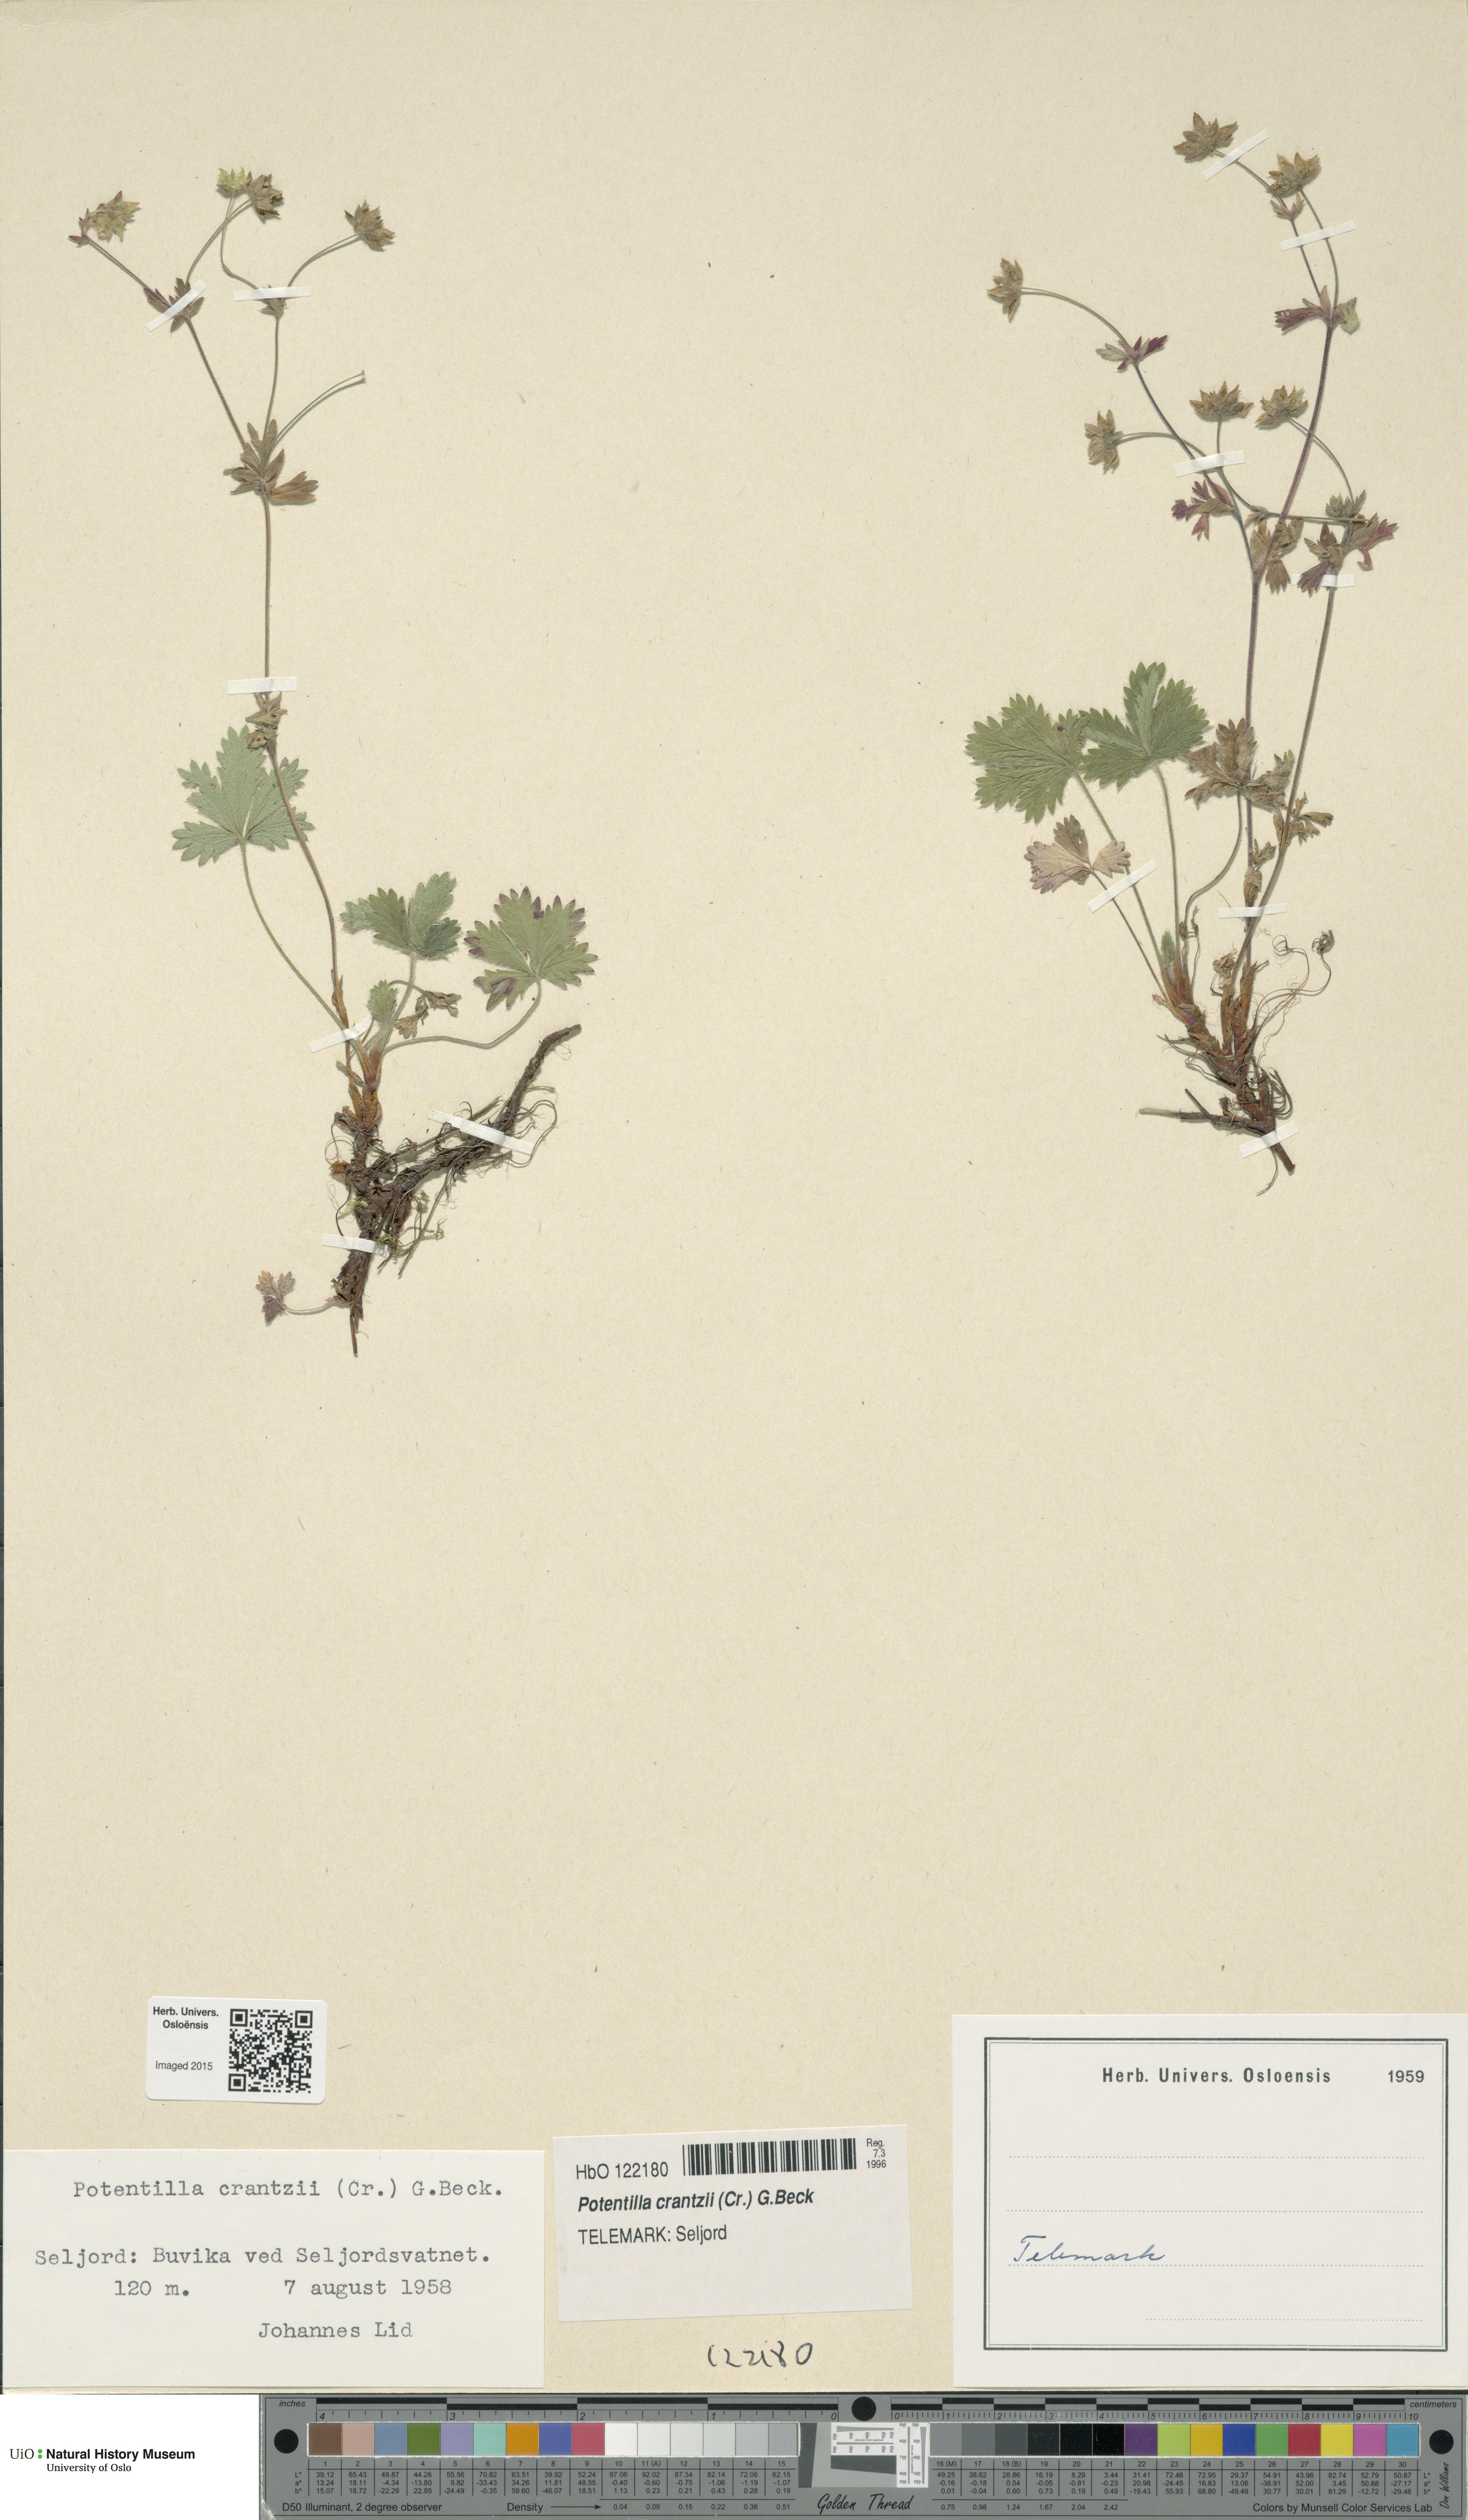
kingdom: Plantae
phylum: Tracheophyta
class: Magnoliopsida
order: Rosales
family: Rosaceae
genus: Potentilla
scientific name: Potentilla crantzii
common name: Alpine cinquefoil
